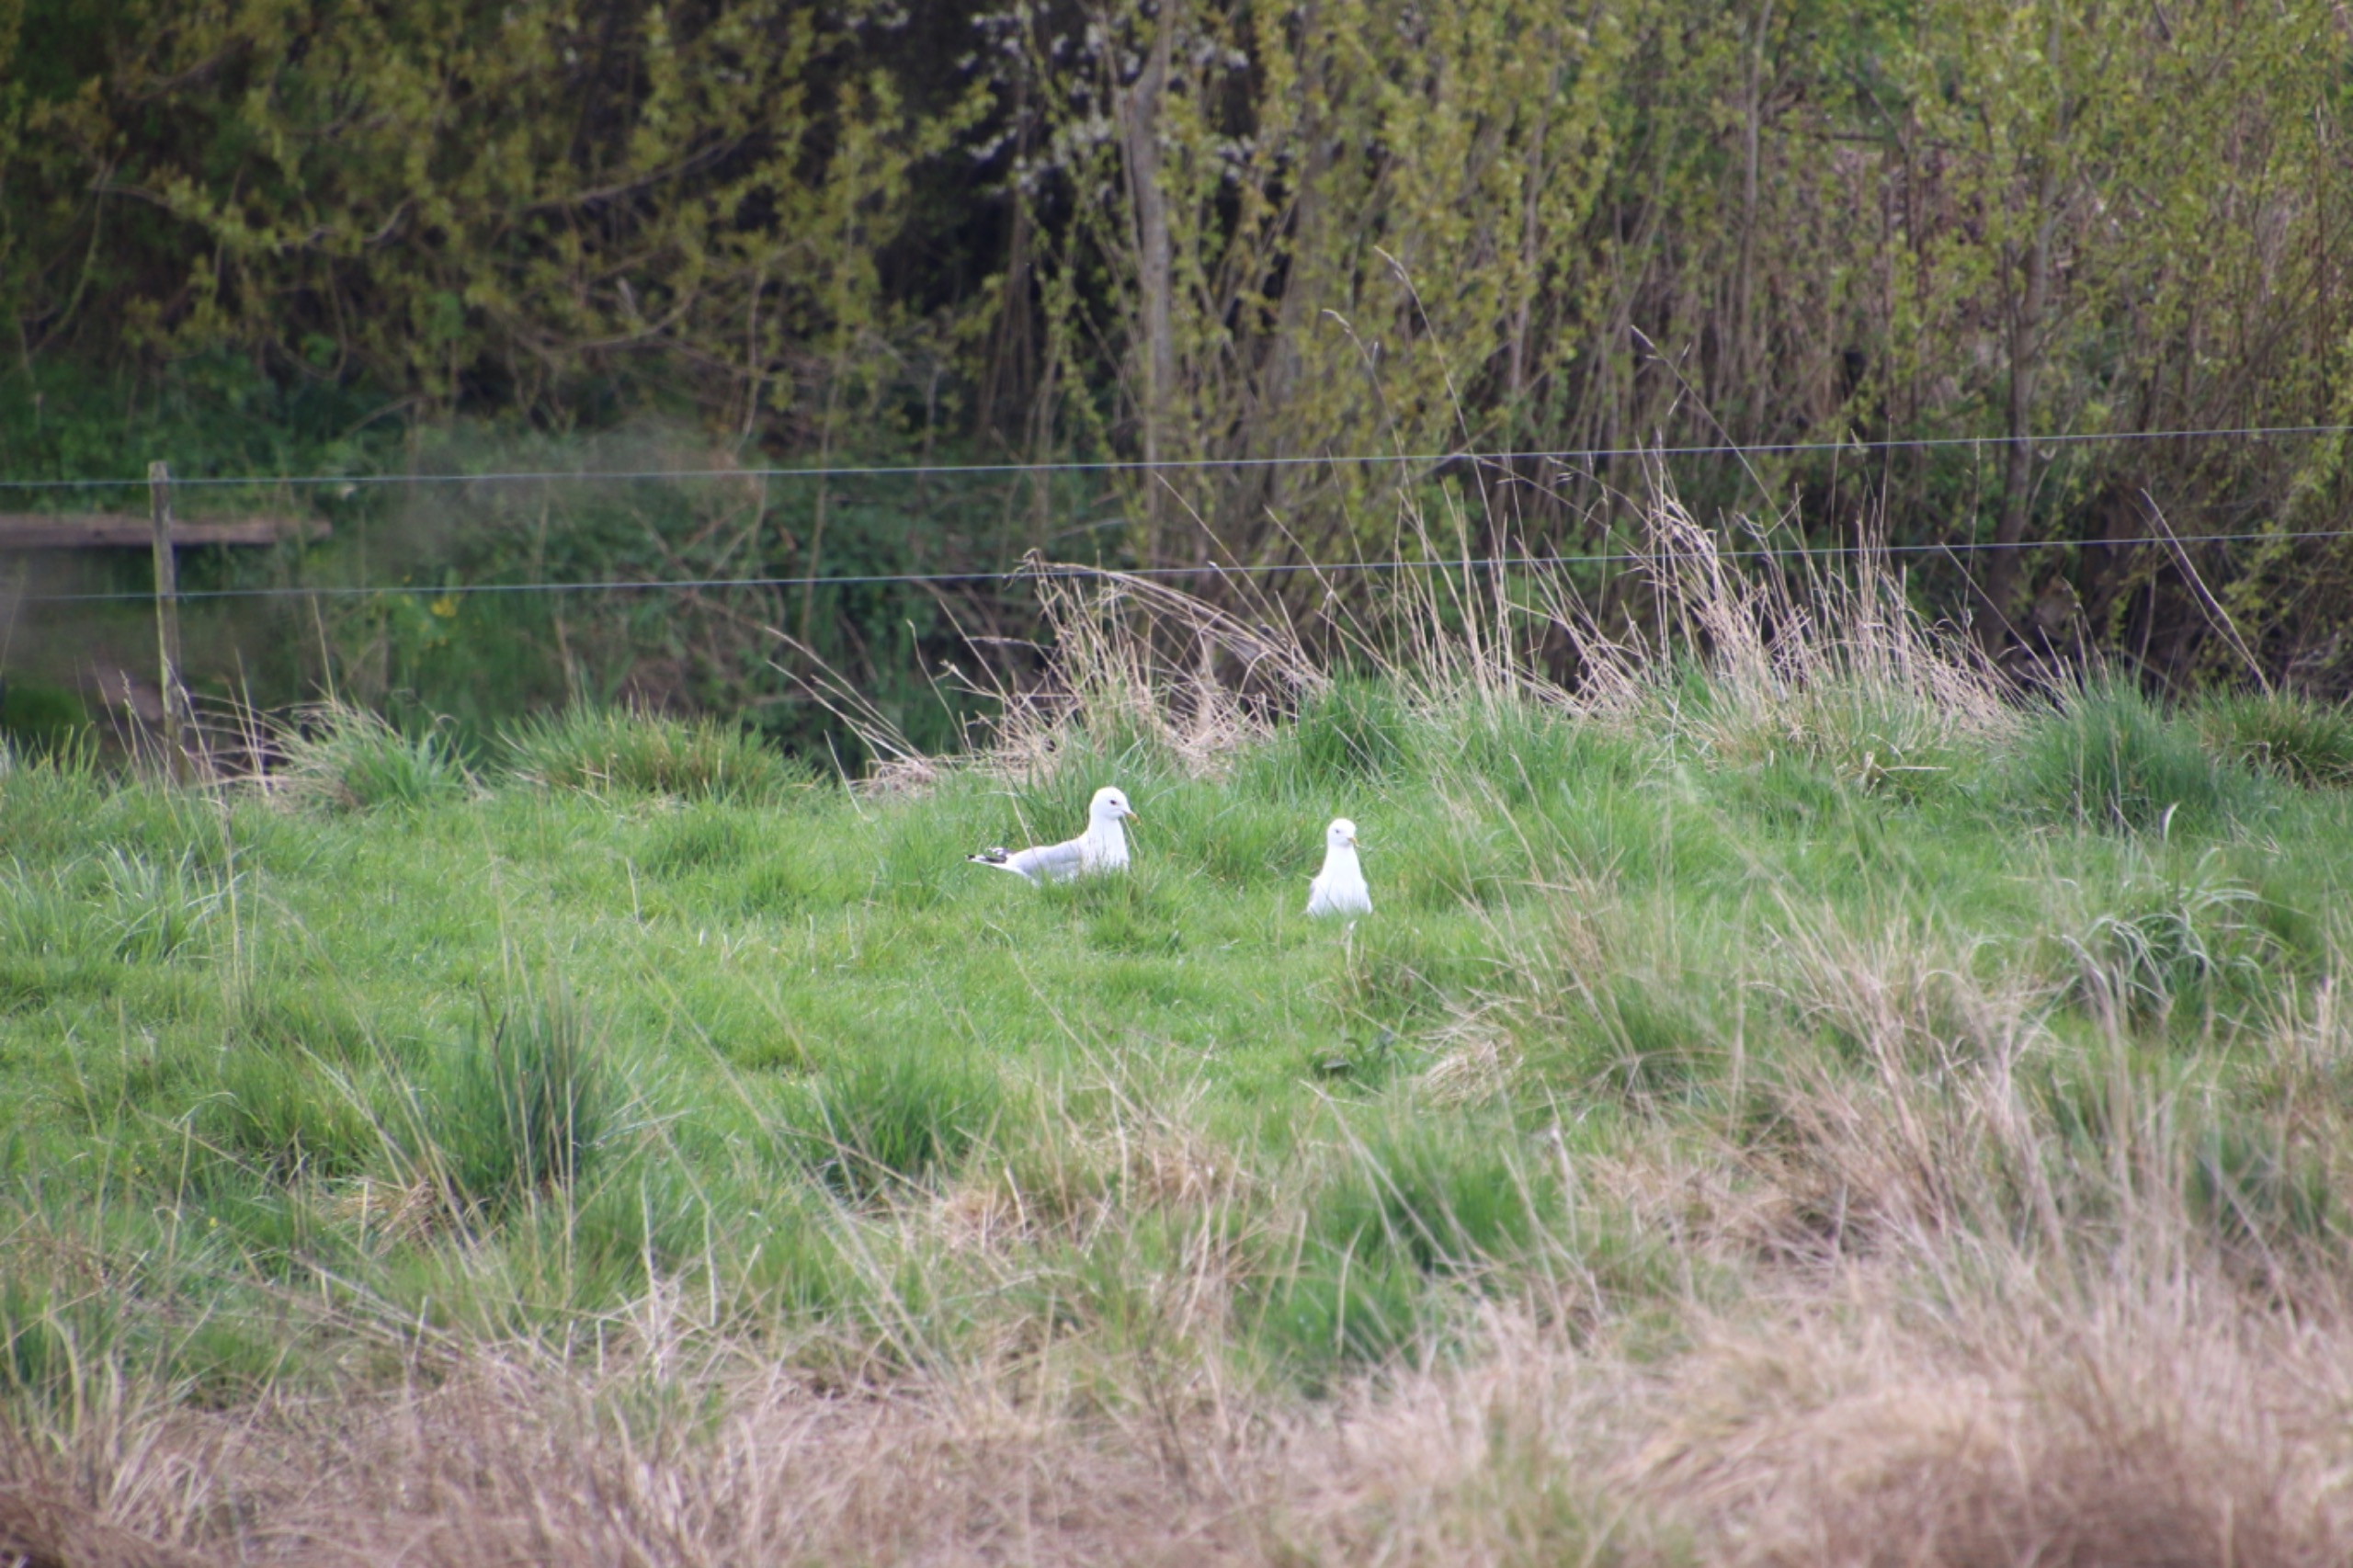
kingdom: Animalia
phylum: Chordata
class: Aves
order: Charadriiformes
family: Laridae
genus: Larus
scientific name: Larus canus
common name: Stormmåge
